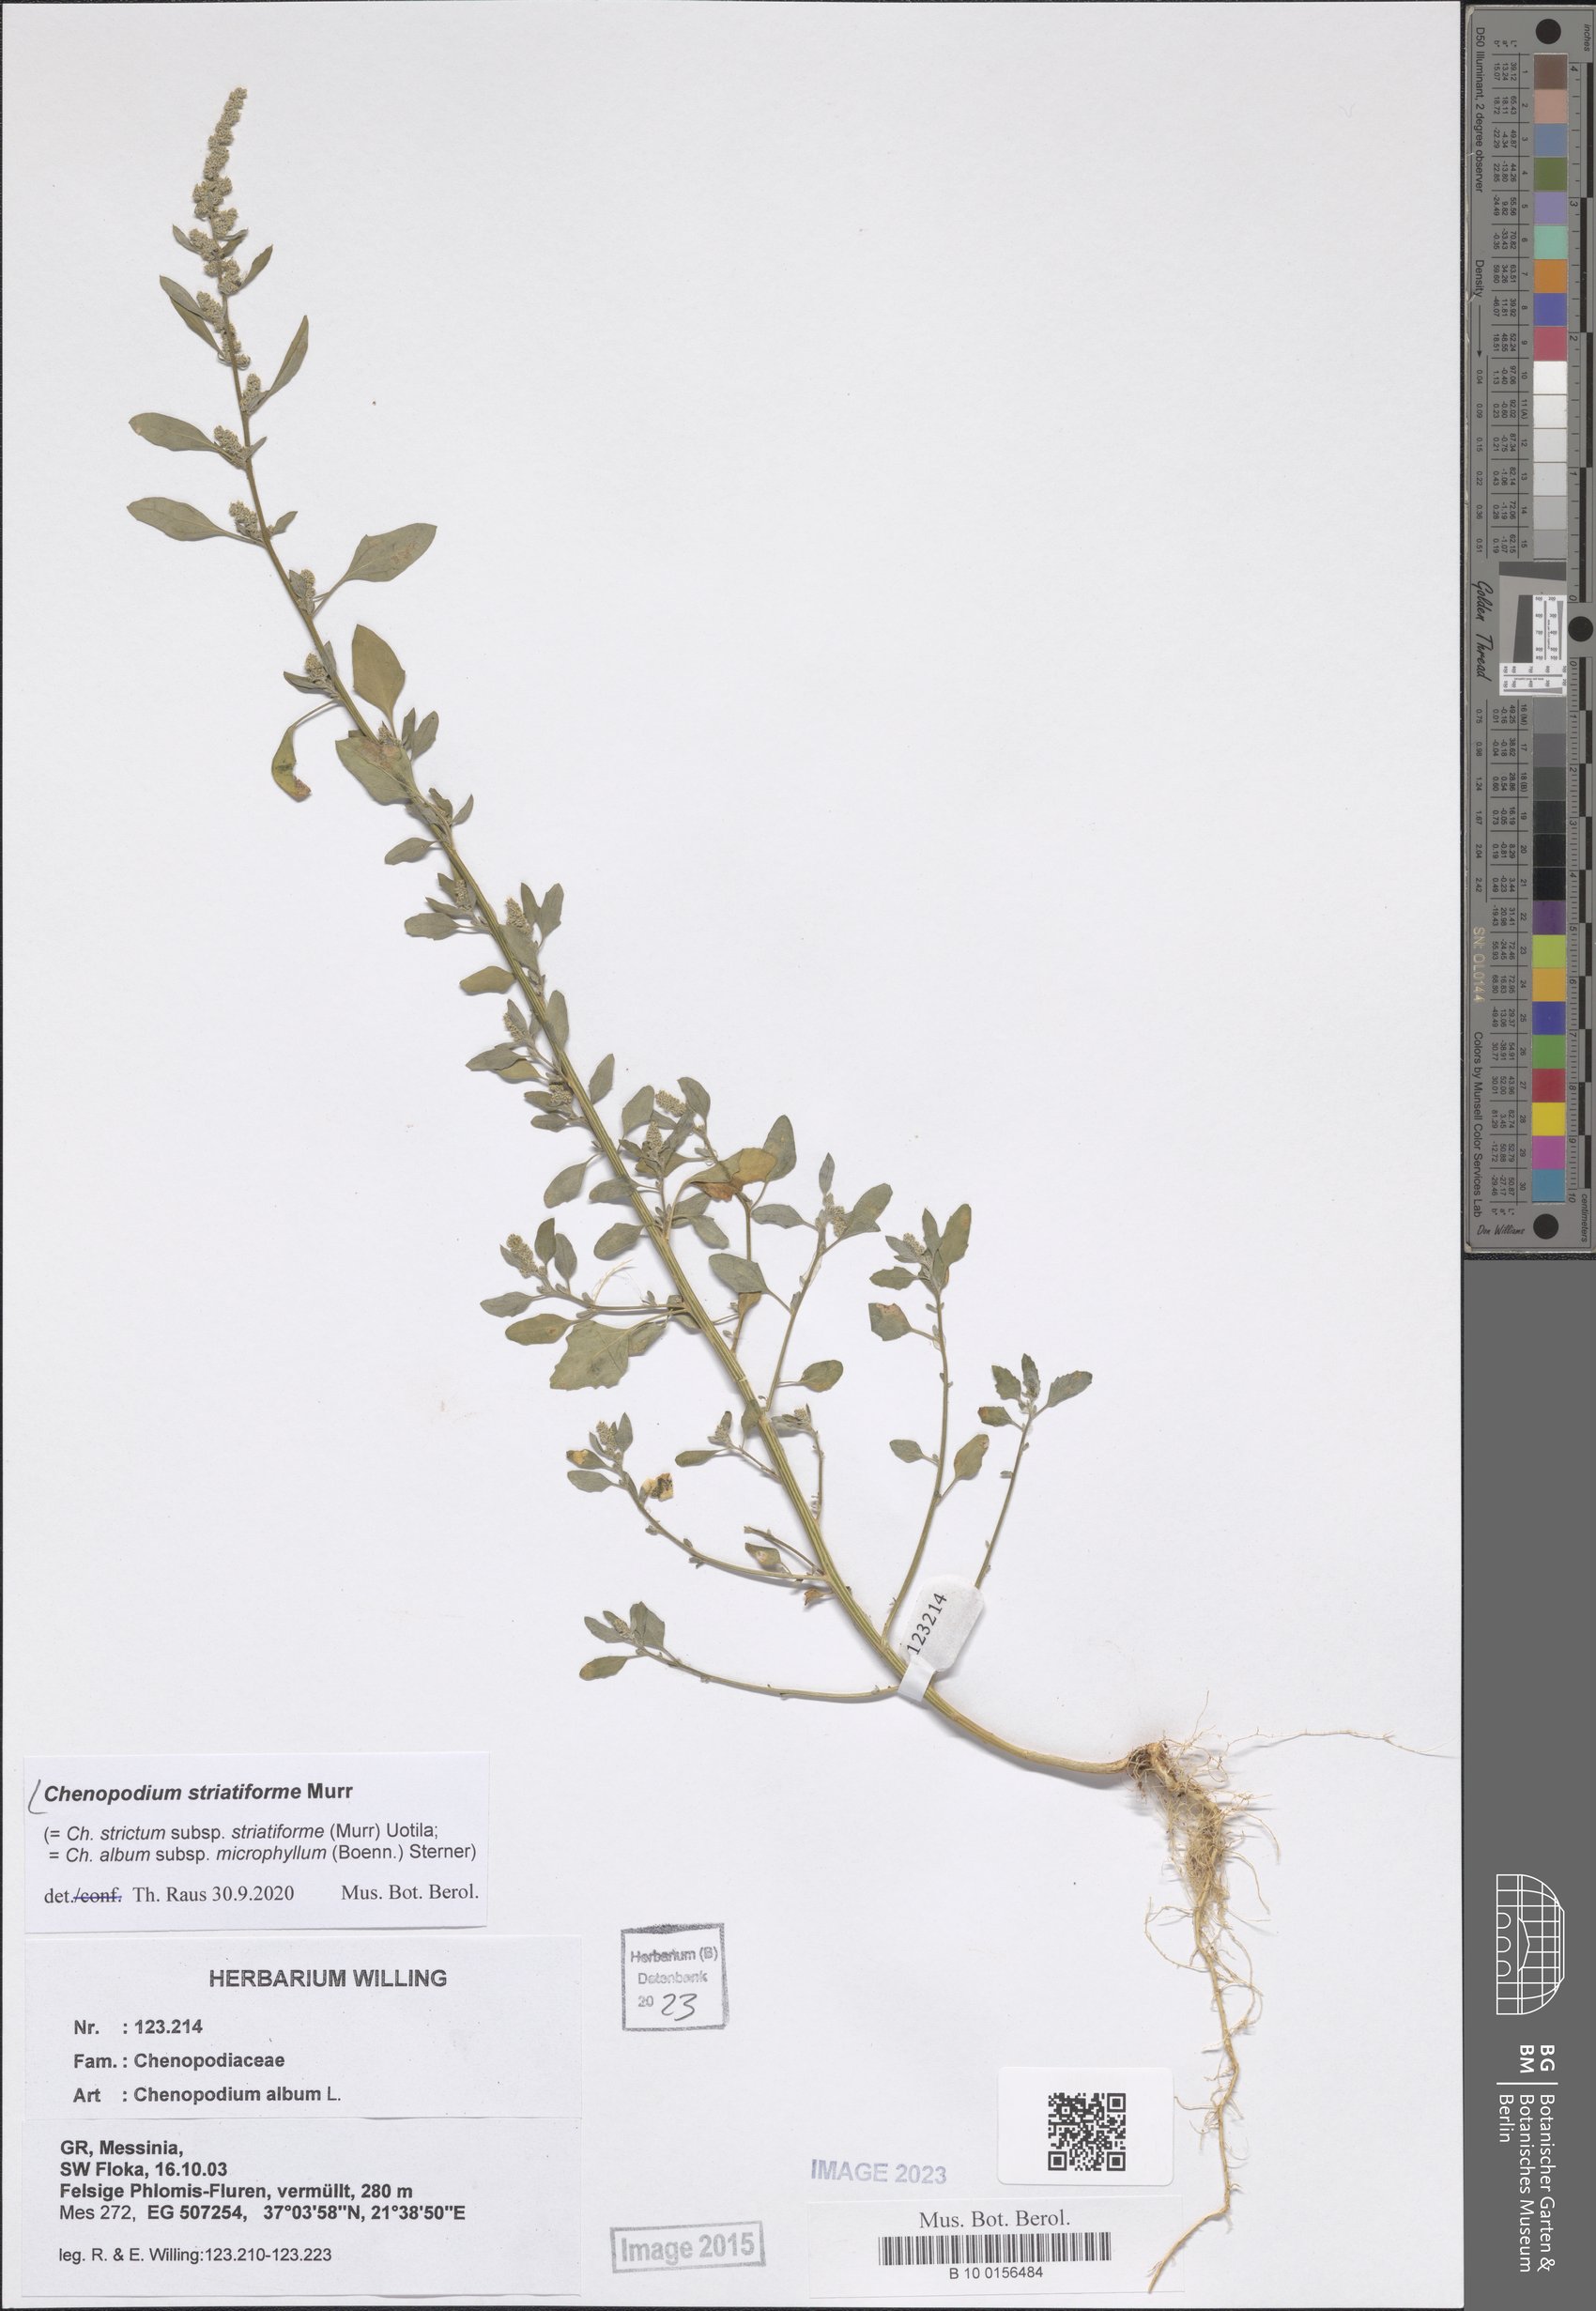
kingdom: Plantae
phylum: Tracheophyta
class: Magnoliopsida
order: Caryophyllales
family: Amaranthaceae
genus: Chenopodium
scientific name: Chenopodium striatiforme
